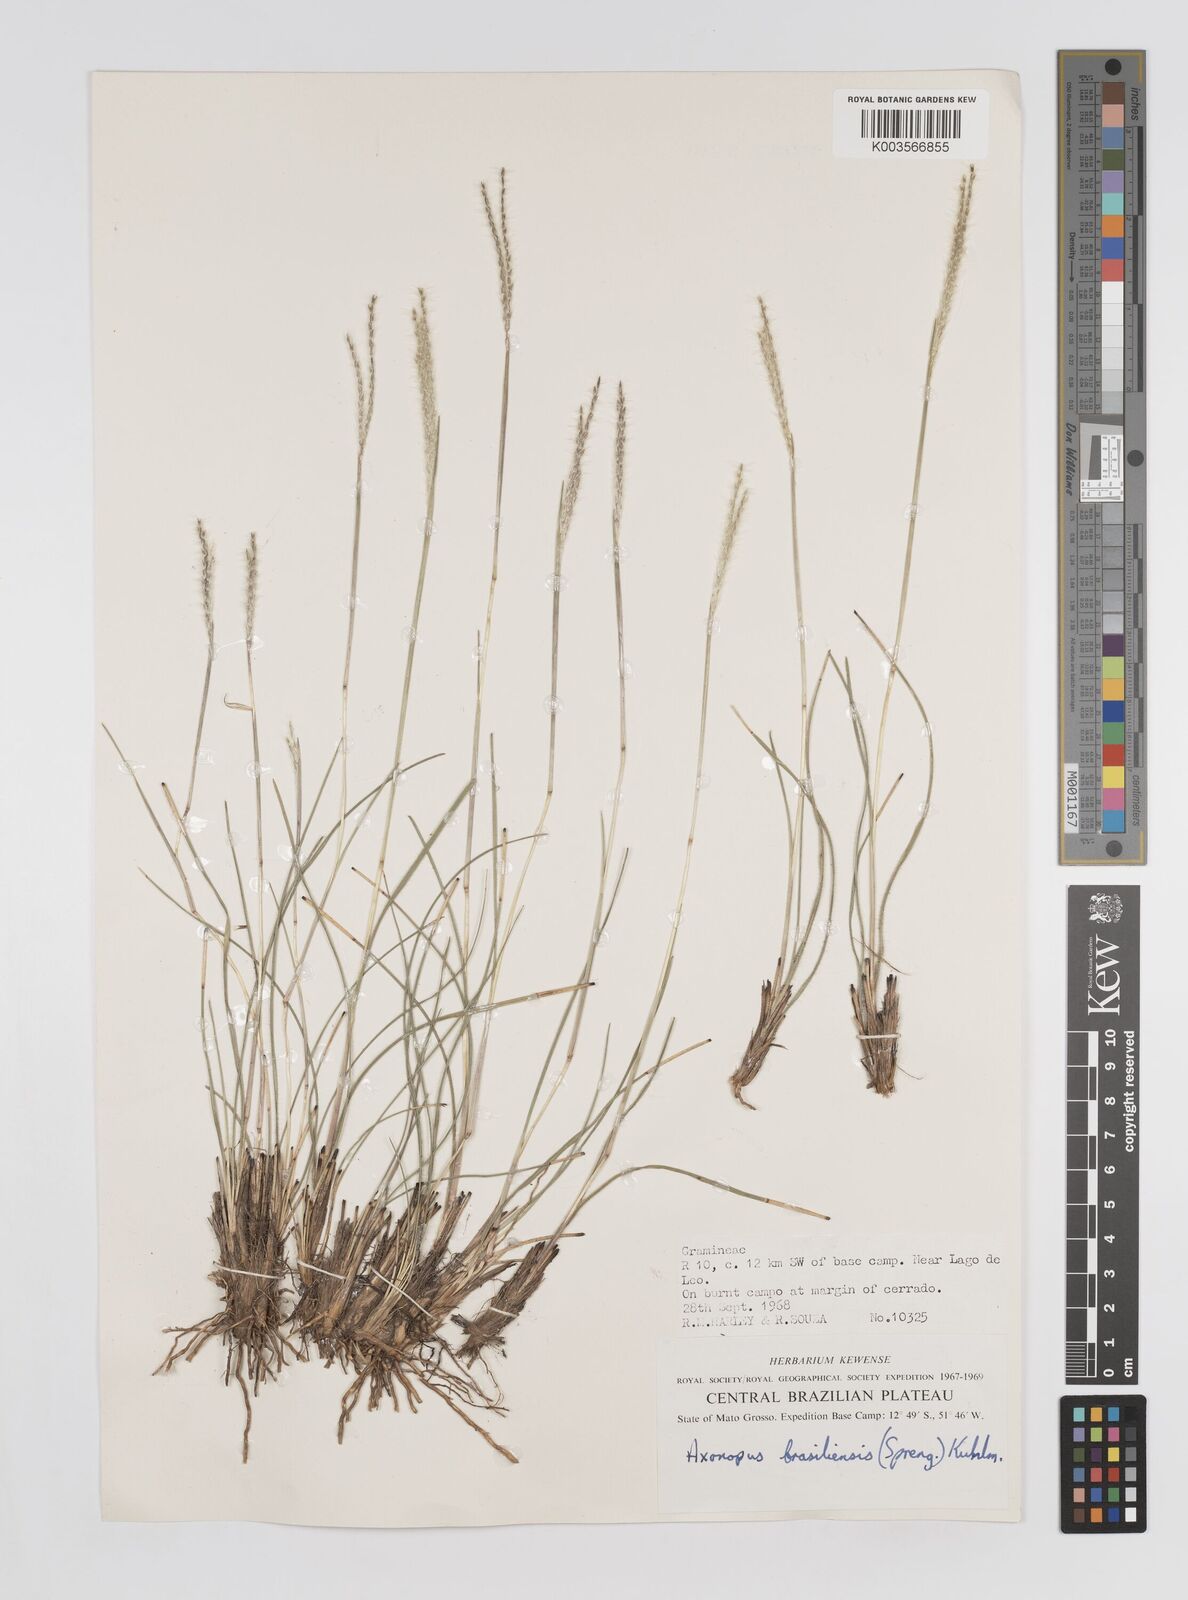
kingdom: Plantae
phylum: Tracheophyta
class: Liliopsida
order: Poales
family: Poaceae
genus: Axonopus
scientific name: Axonopus brasiliensis
